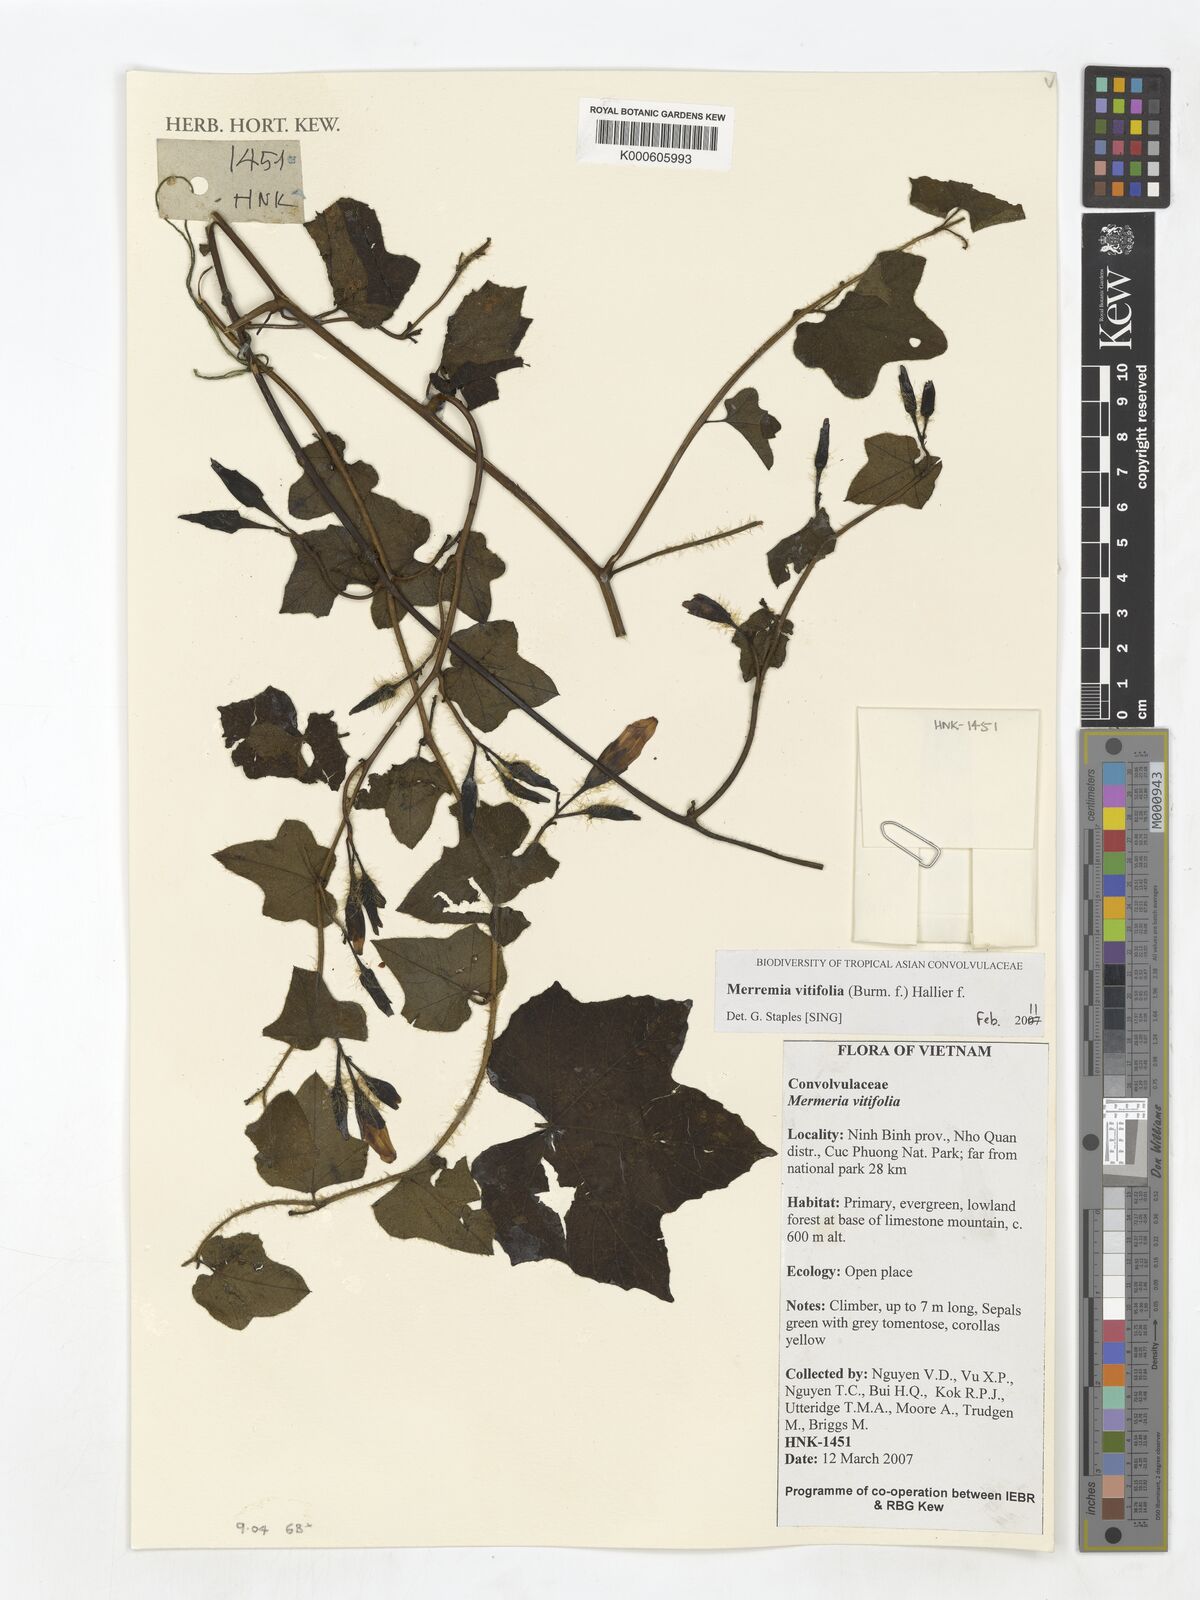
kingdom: Plantae
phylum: Tracheophyta
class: Magnoliopsida
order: Solanales
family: Convolvulaceae
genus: Camonea
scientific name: Camonea vitifolia
